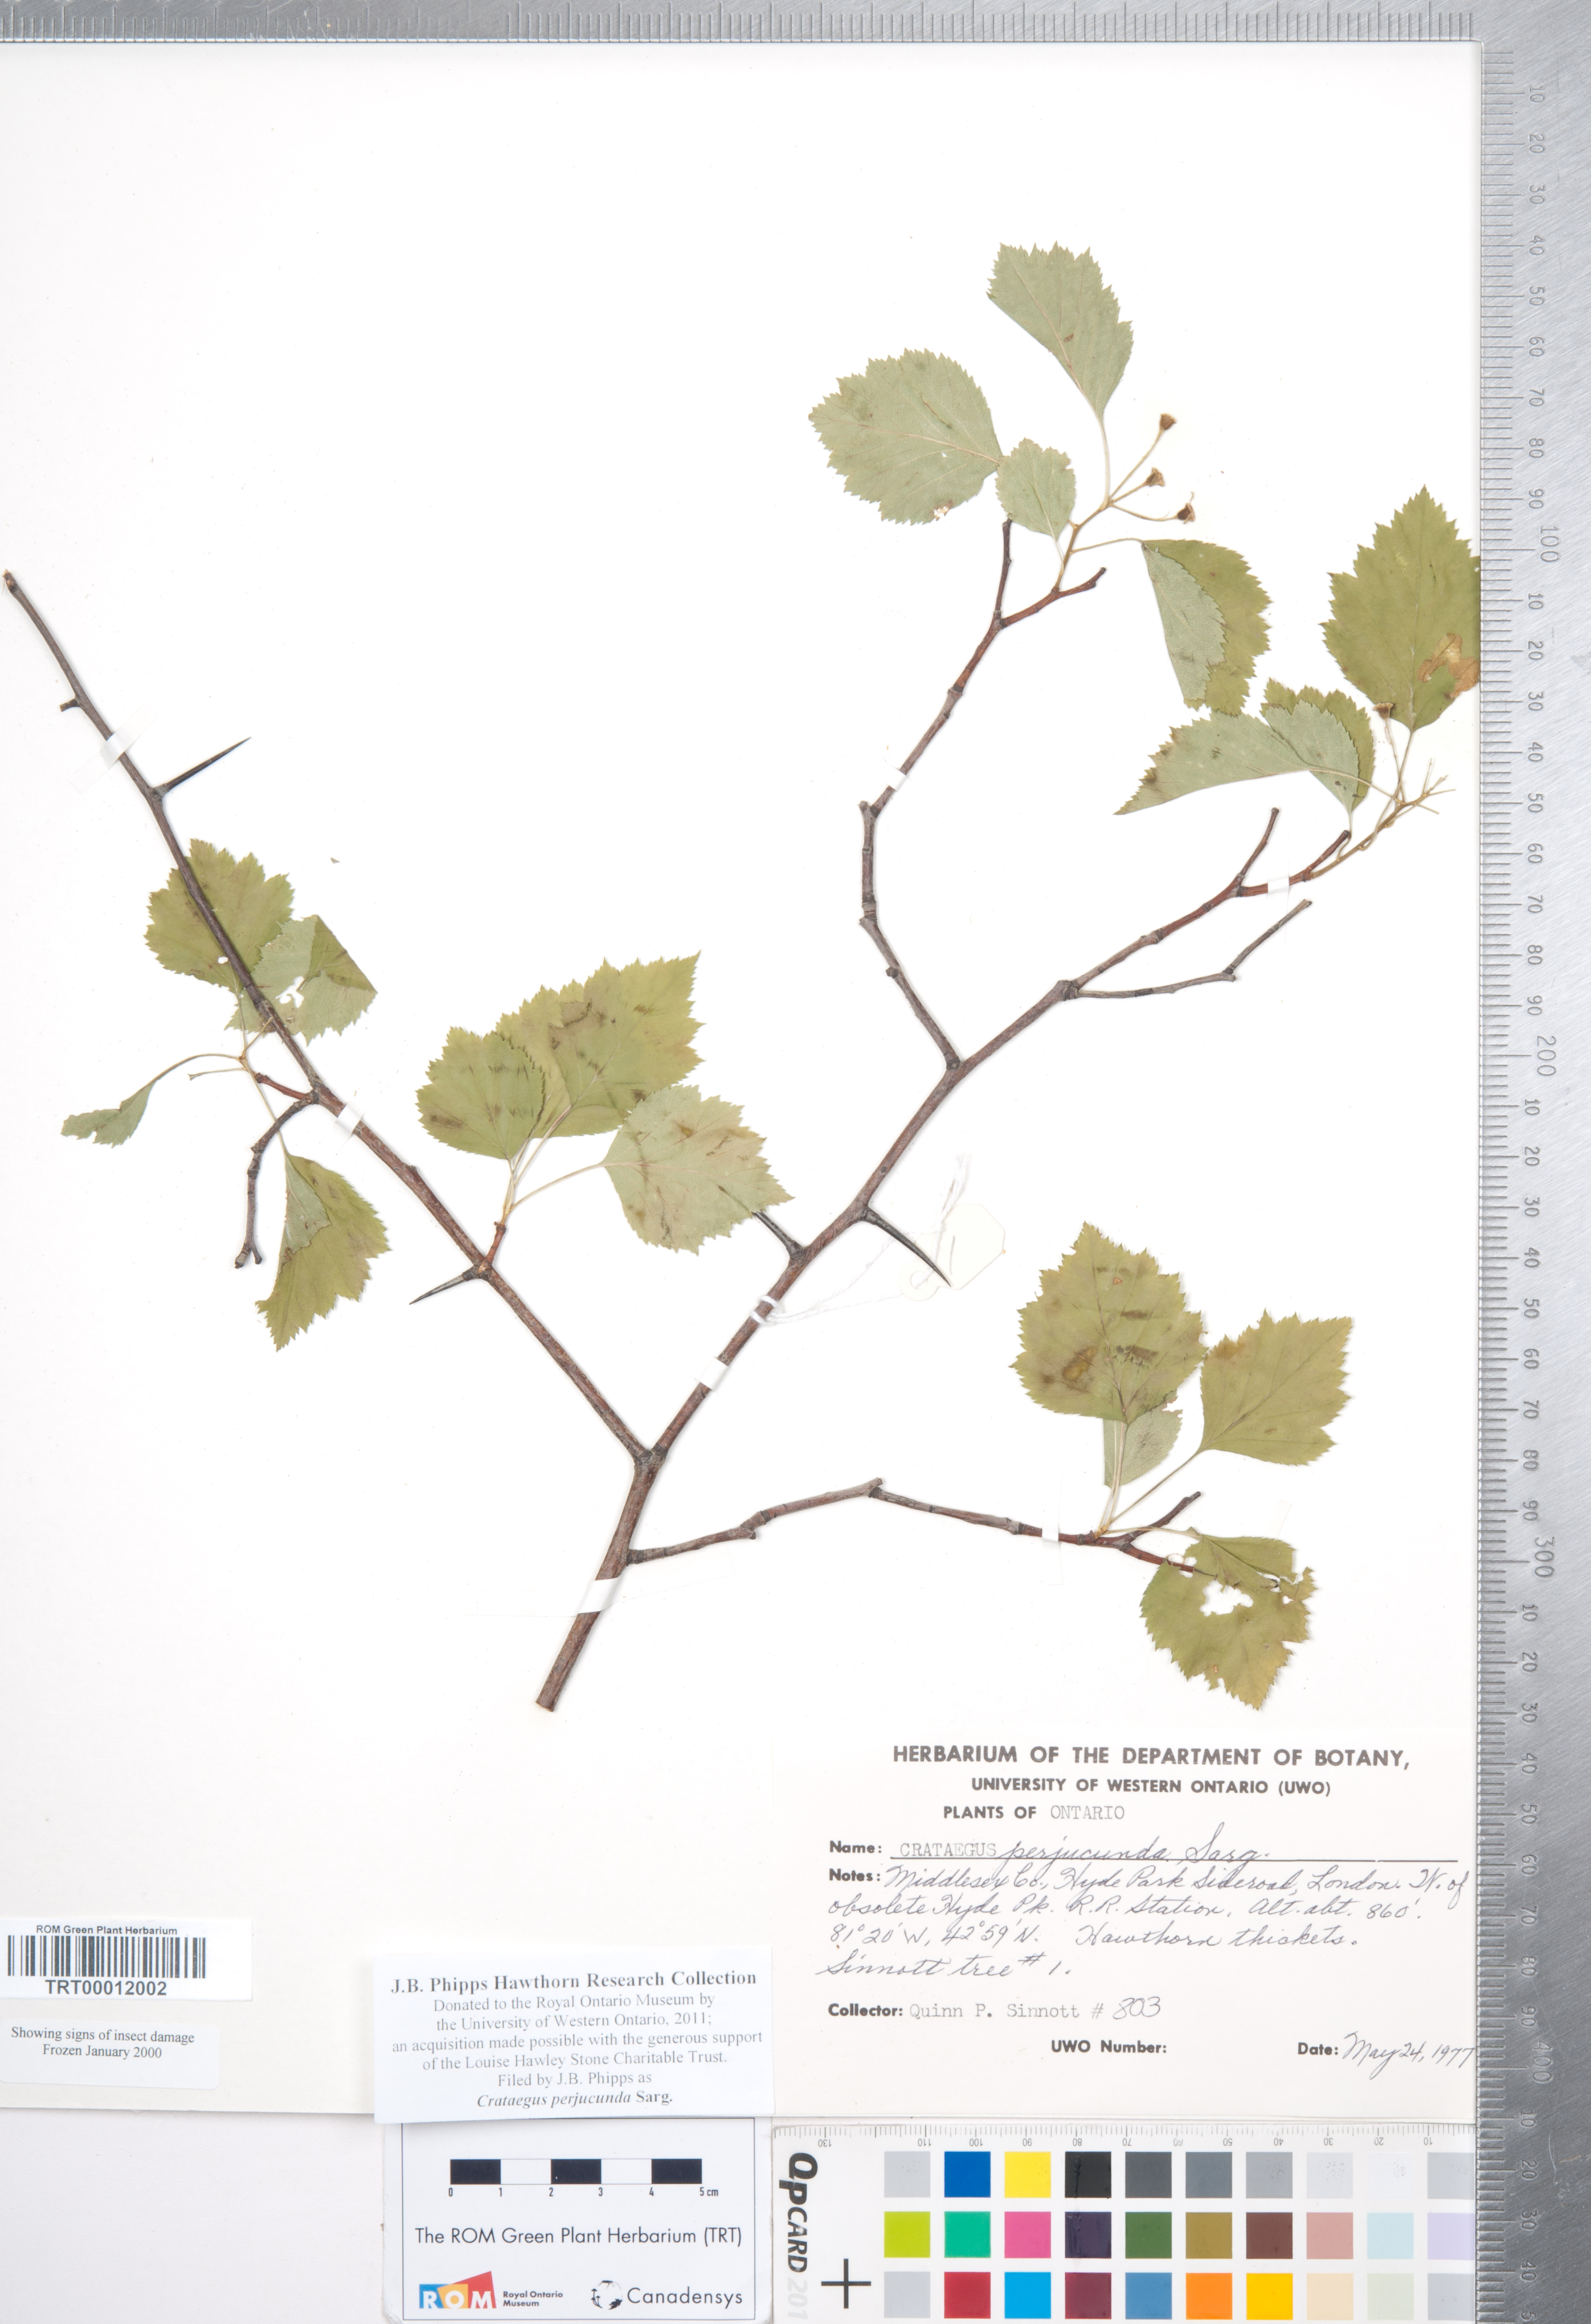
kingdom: Plantae
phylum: Tracheophyta
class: Magnoliopsida
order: Rosales
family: Rosaceae
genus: Crataegus
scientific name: Crataegus cognata
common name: Cognate hawthorn
